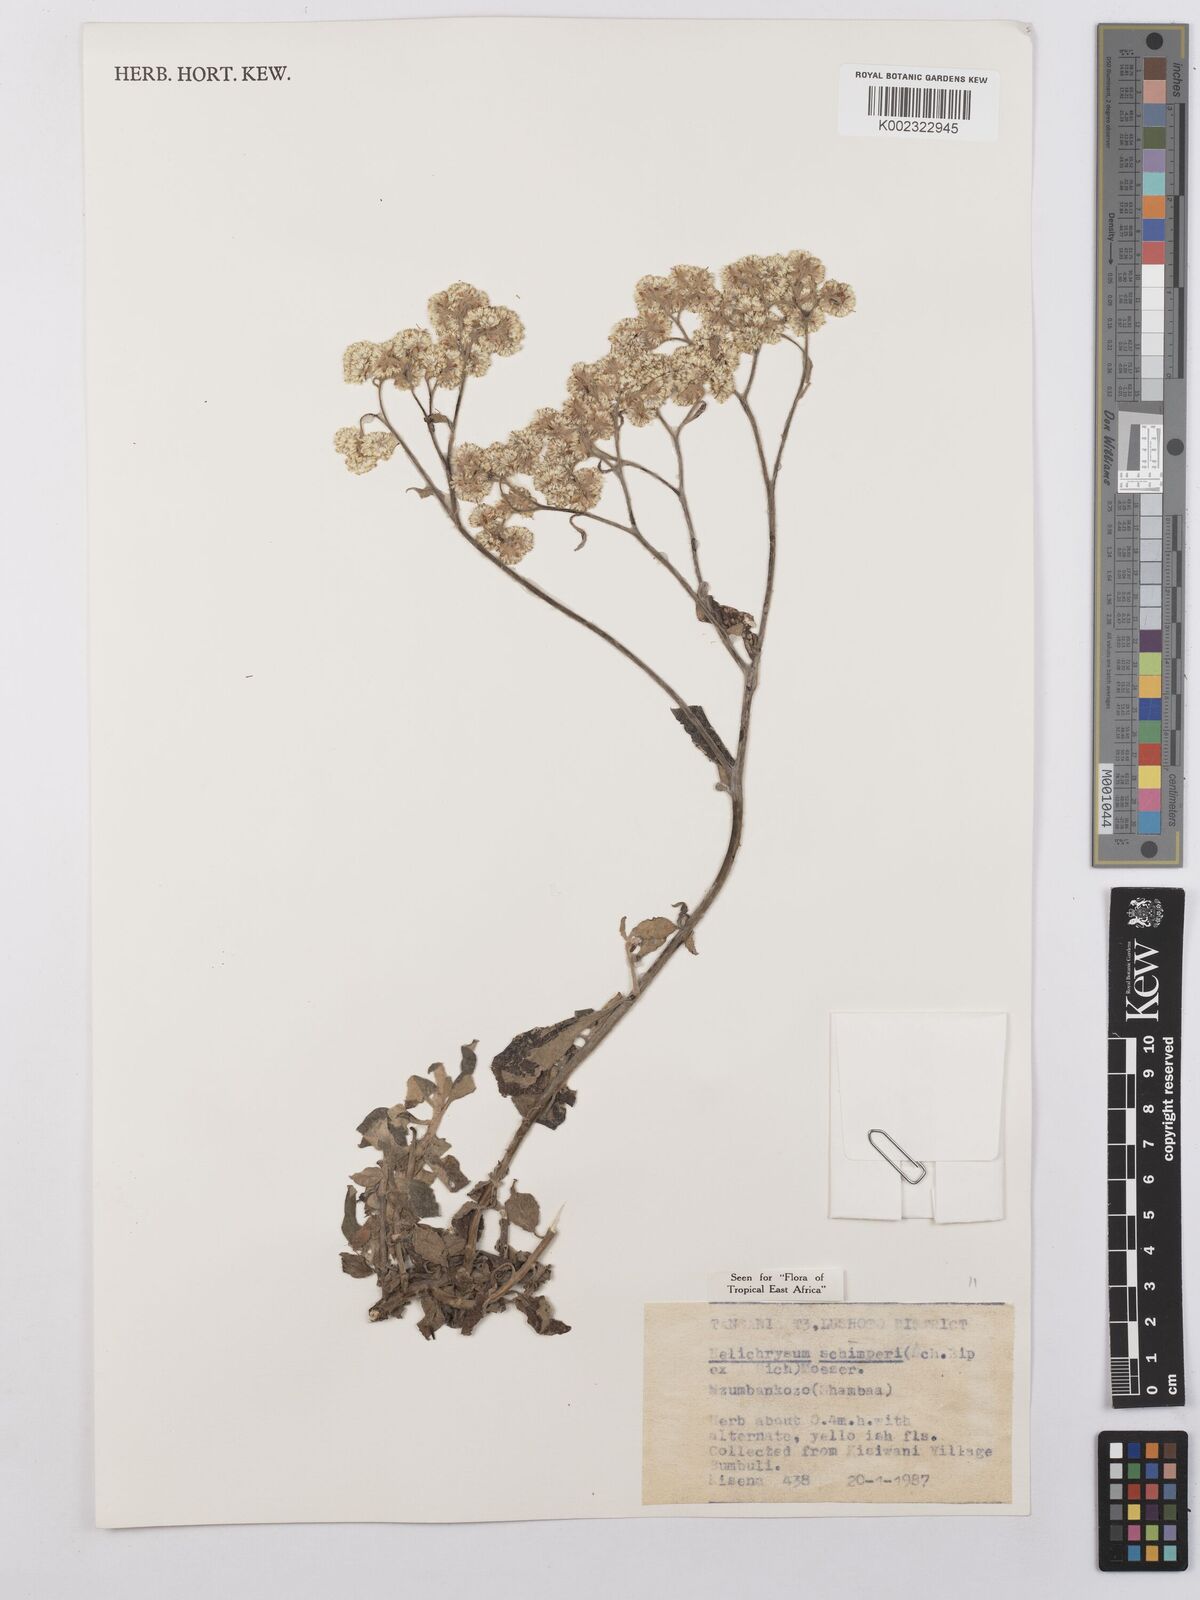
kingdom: Plantae
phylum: Tracheophyta
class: Magnoliopsida
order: Asterales
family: Asteraceae
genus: Helichrysum
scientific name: Helichrysum schimperi
